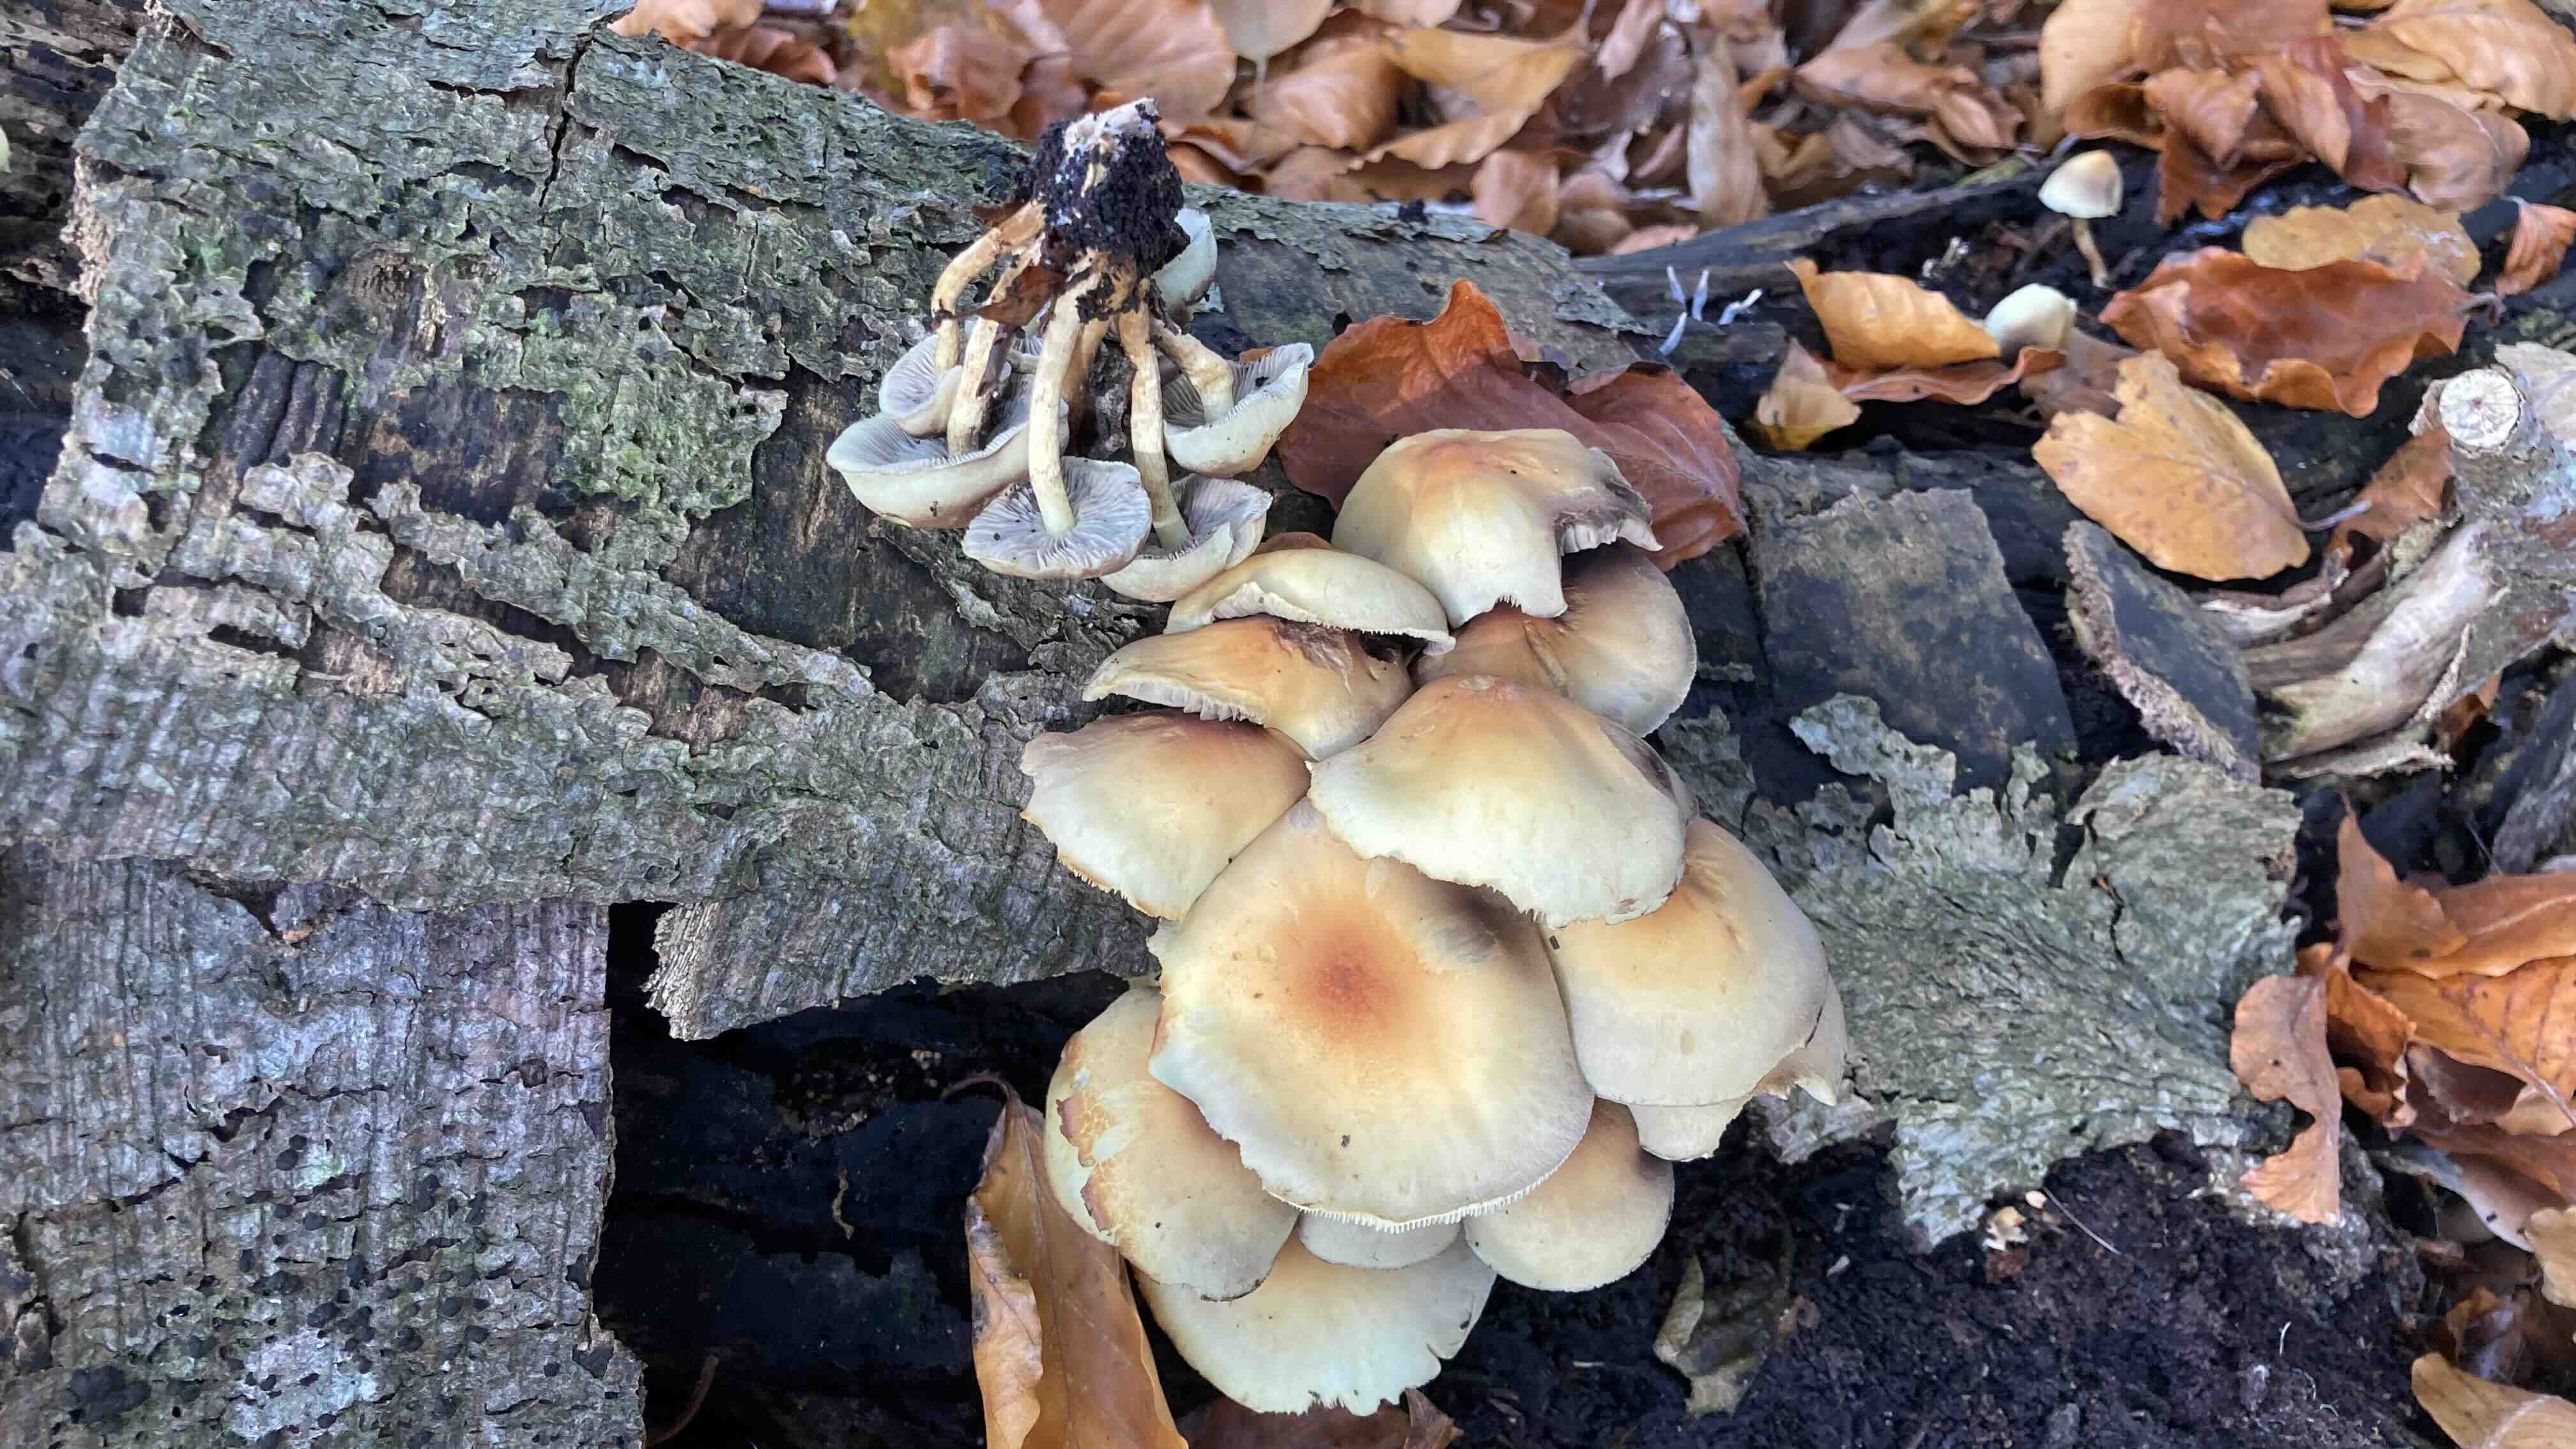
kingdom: Fungi
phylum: Basidiomycota
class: Agaricomycetes
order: Agaricales
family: Strophariaceae
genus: Hypholoma
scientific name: Hypholoma fasciculare
